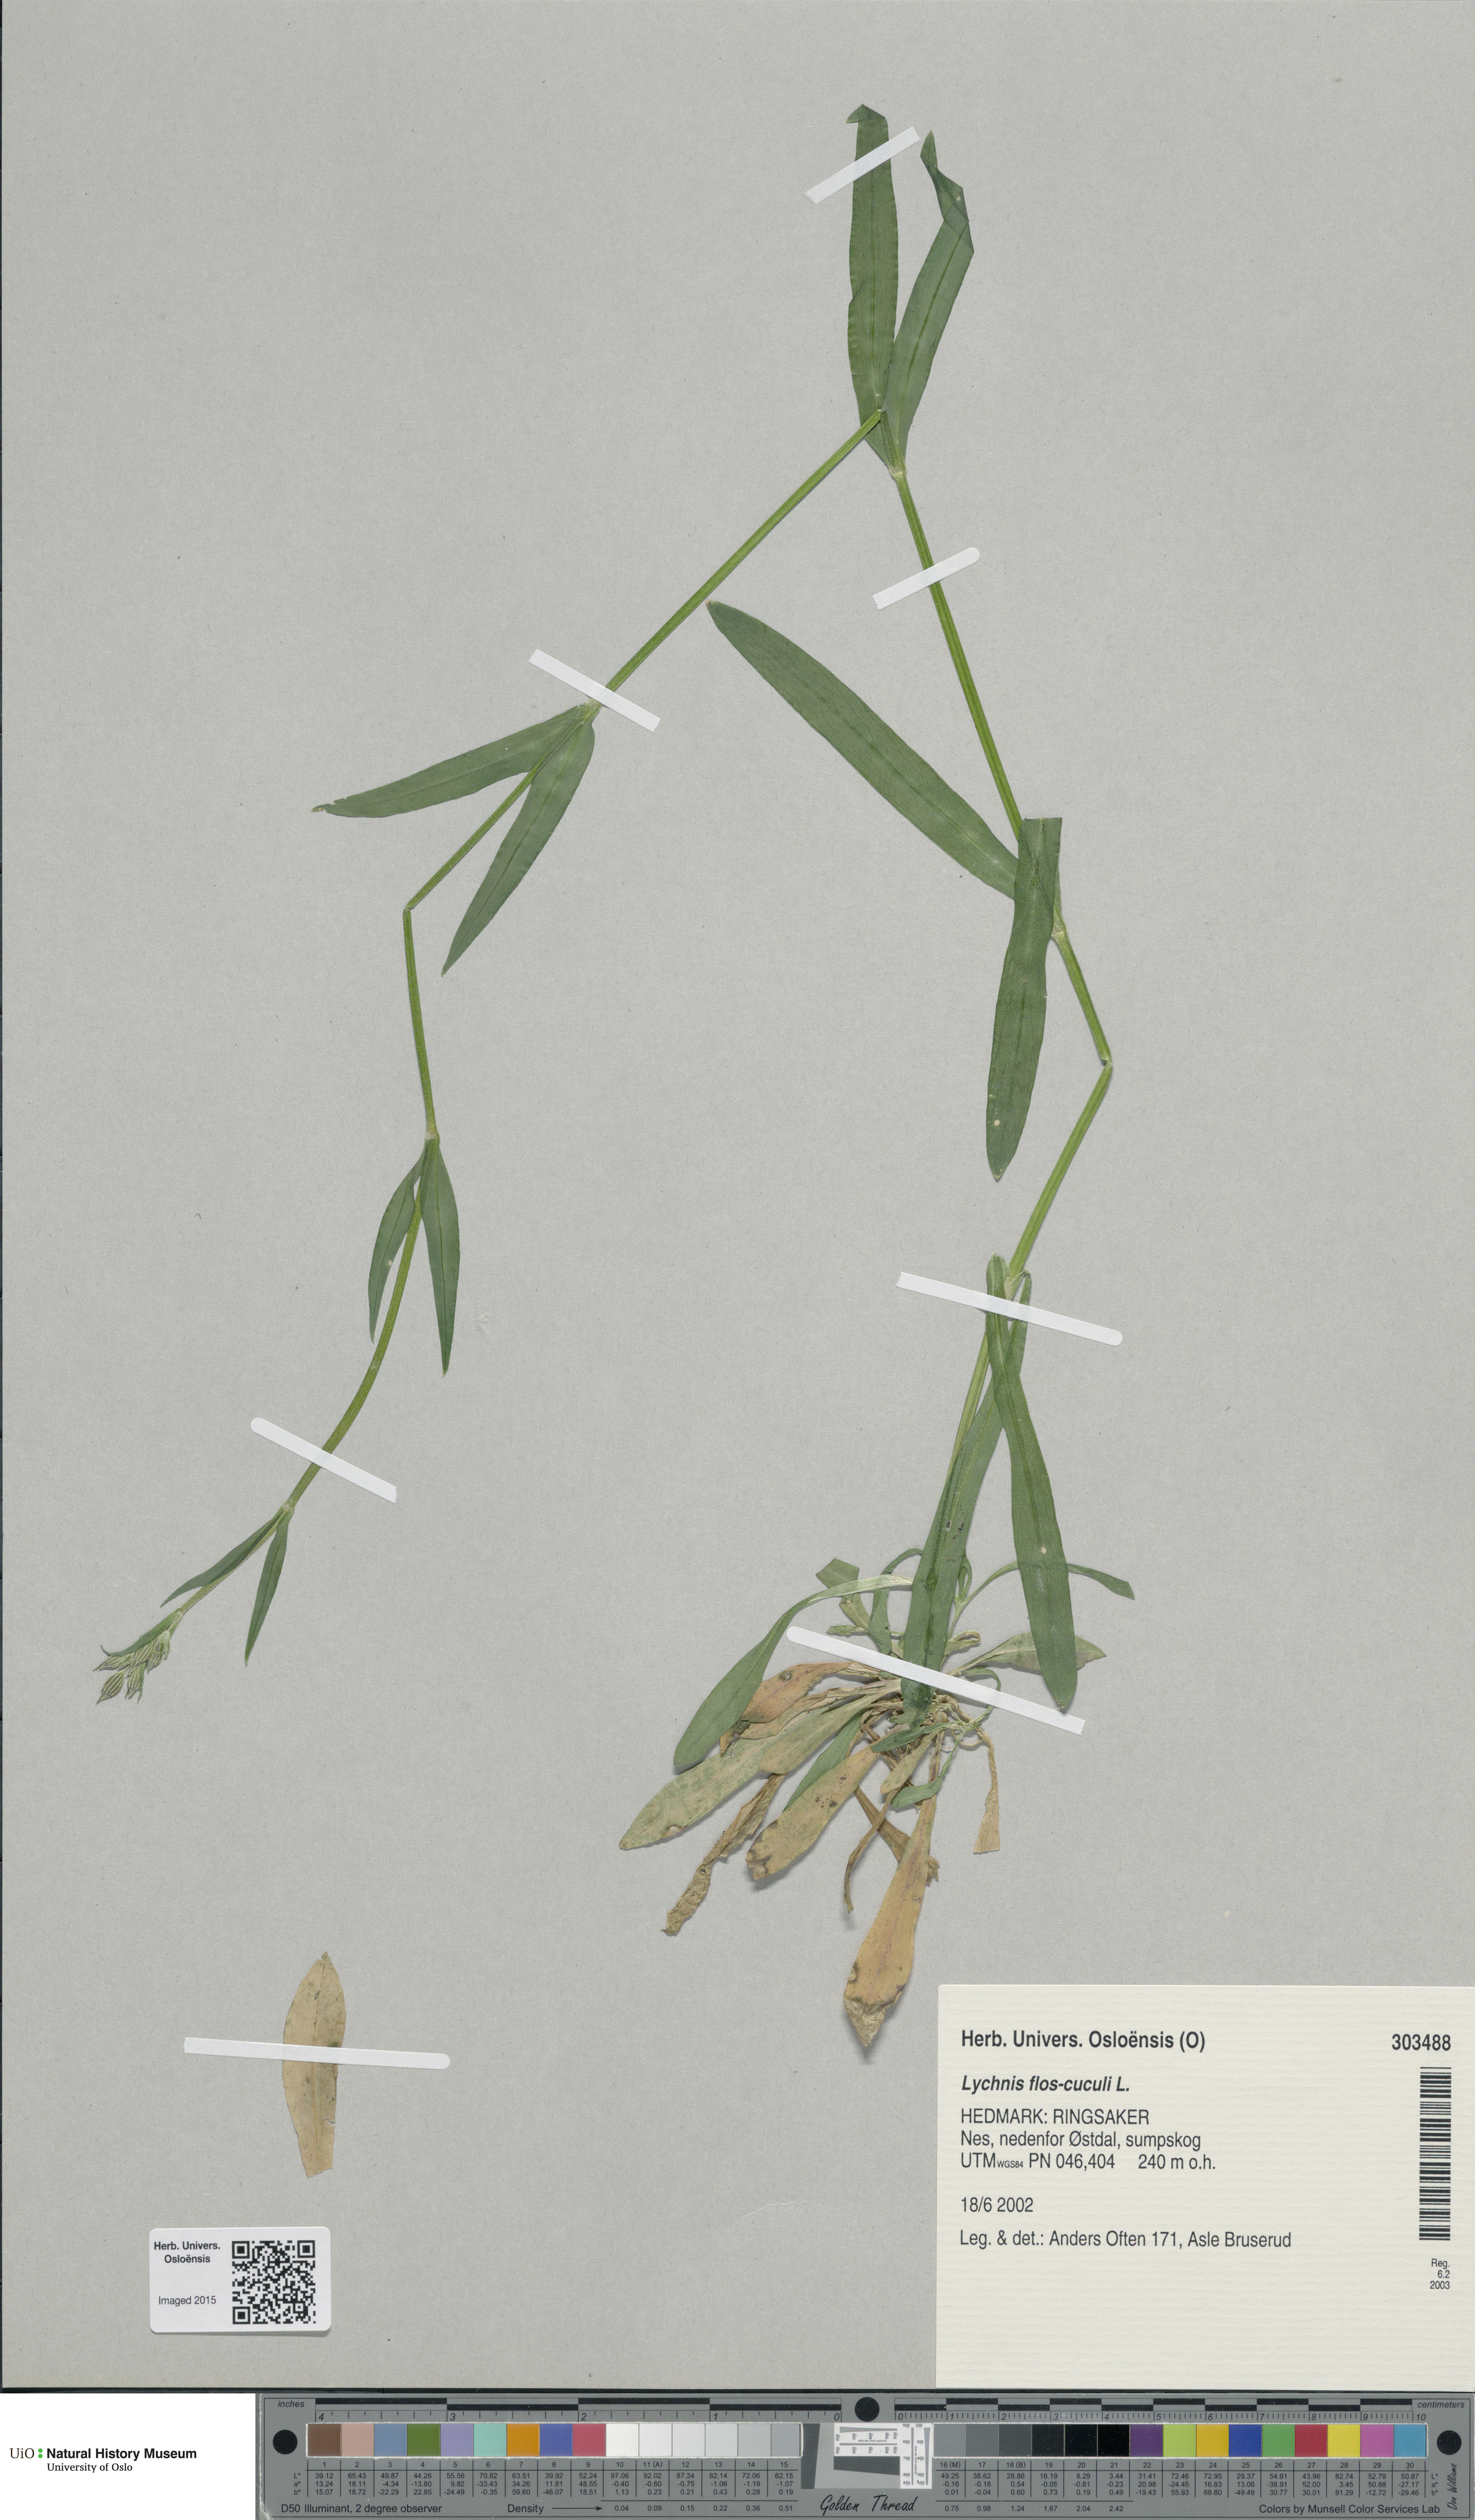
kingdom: Plantae
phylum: Tracheophyta
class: Magnoliopsida
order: Caryophyllales
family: Caryophyllaceae
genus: Silene
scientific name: Silene flos-cuculi
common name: Ragged-robin
